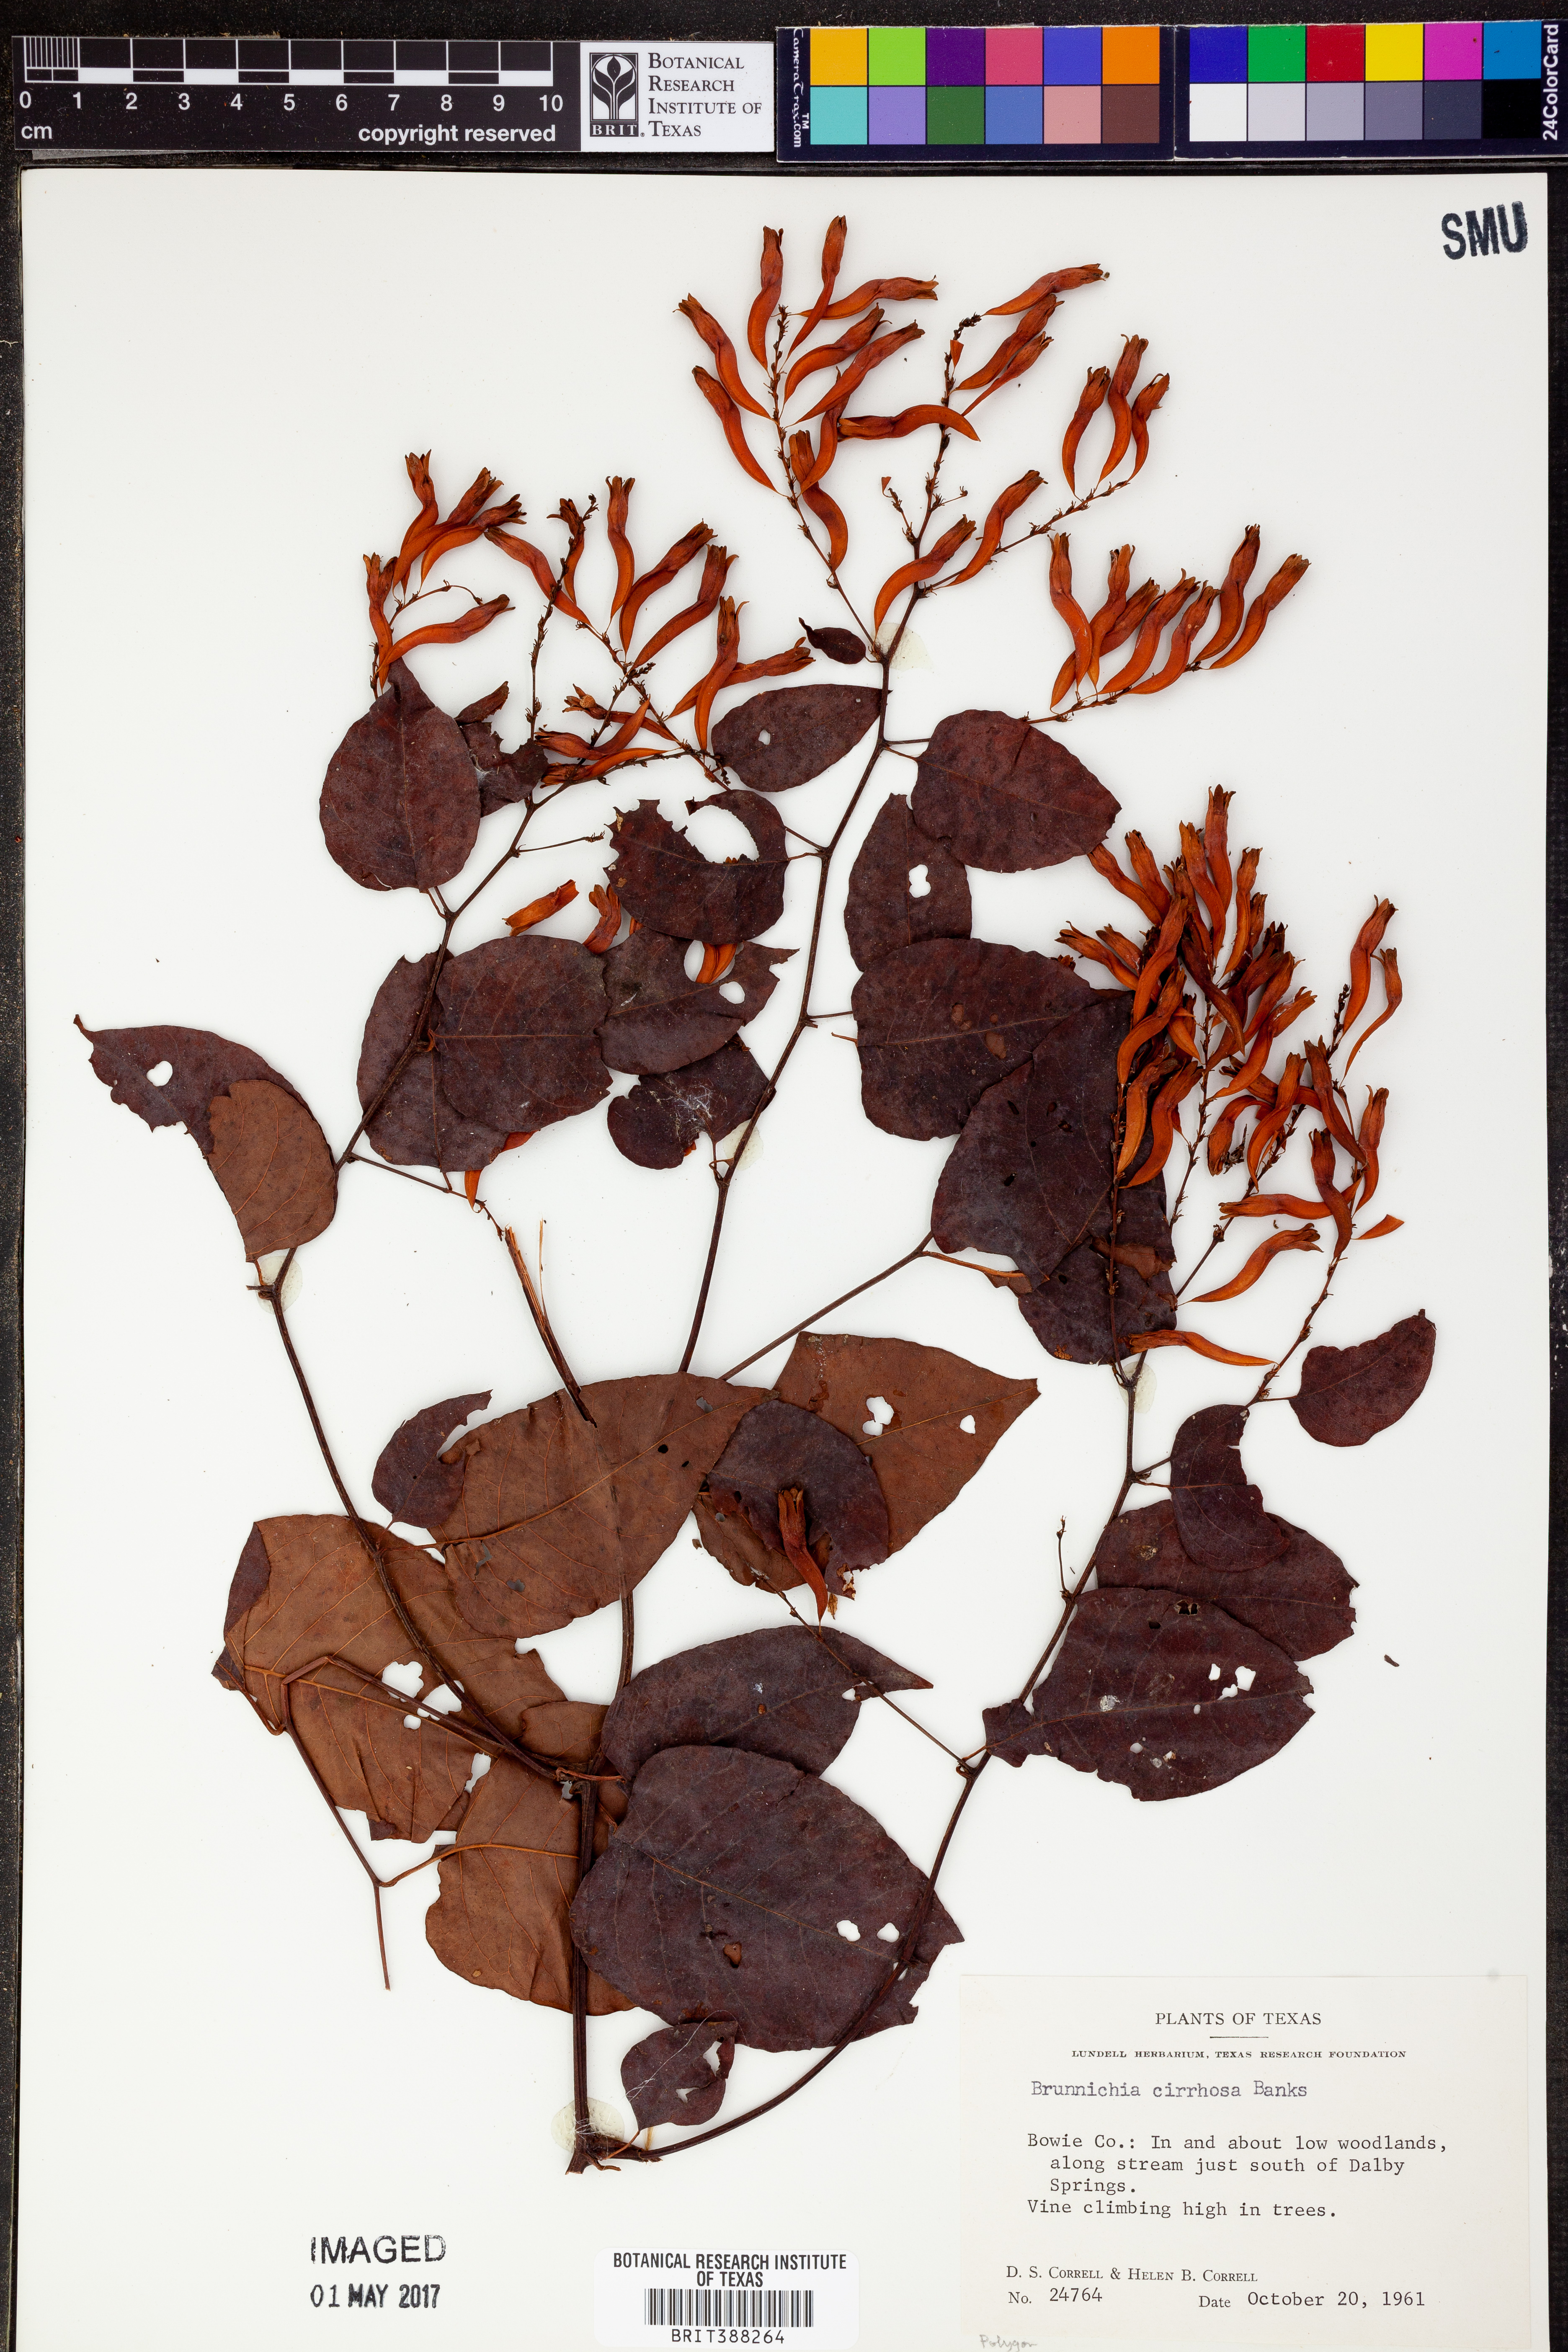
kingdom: Plantae
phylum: Tracheophyta
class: Magnoliopsida
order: Caryophyllales
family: Polygonaceae
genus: Brunnichia
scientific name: Brunnichia ovata
